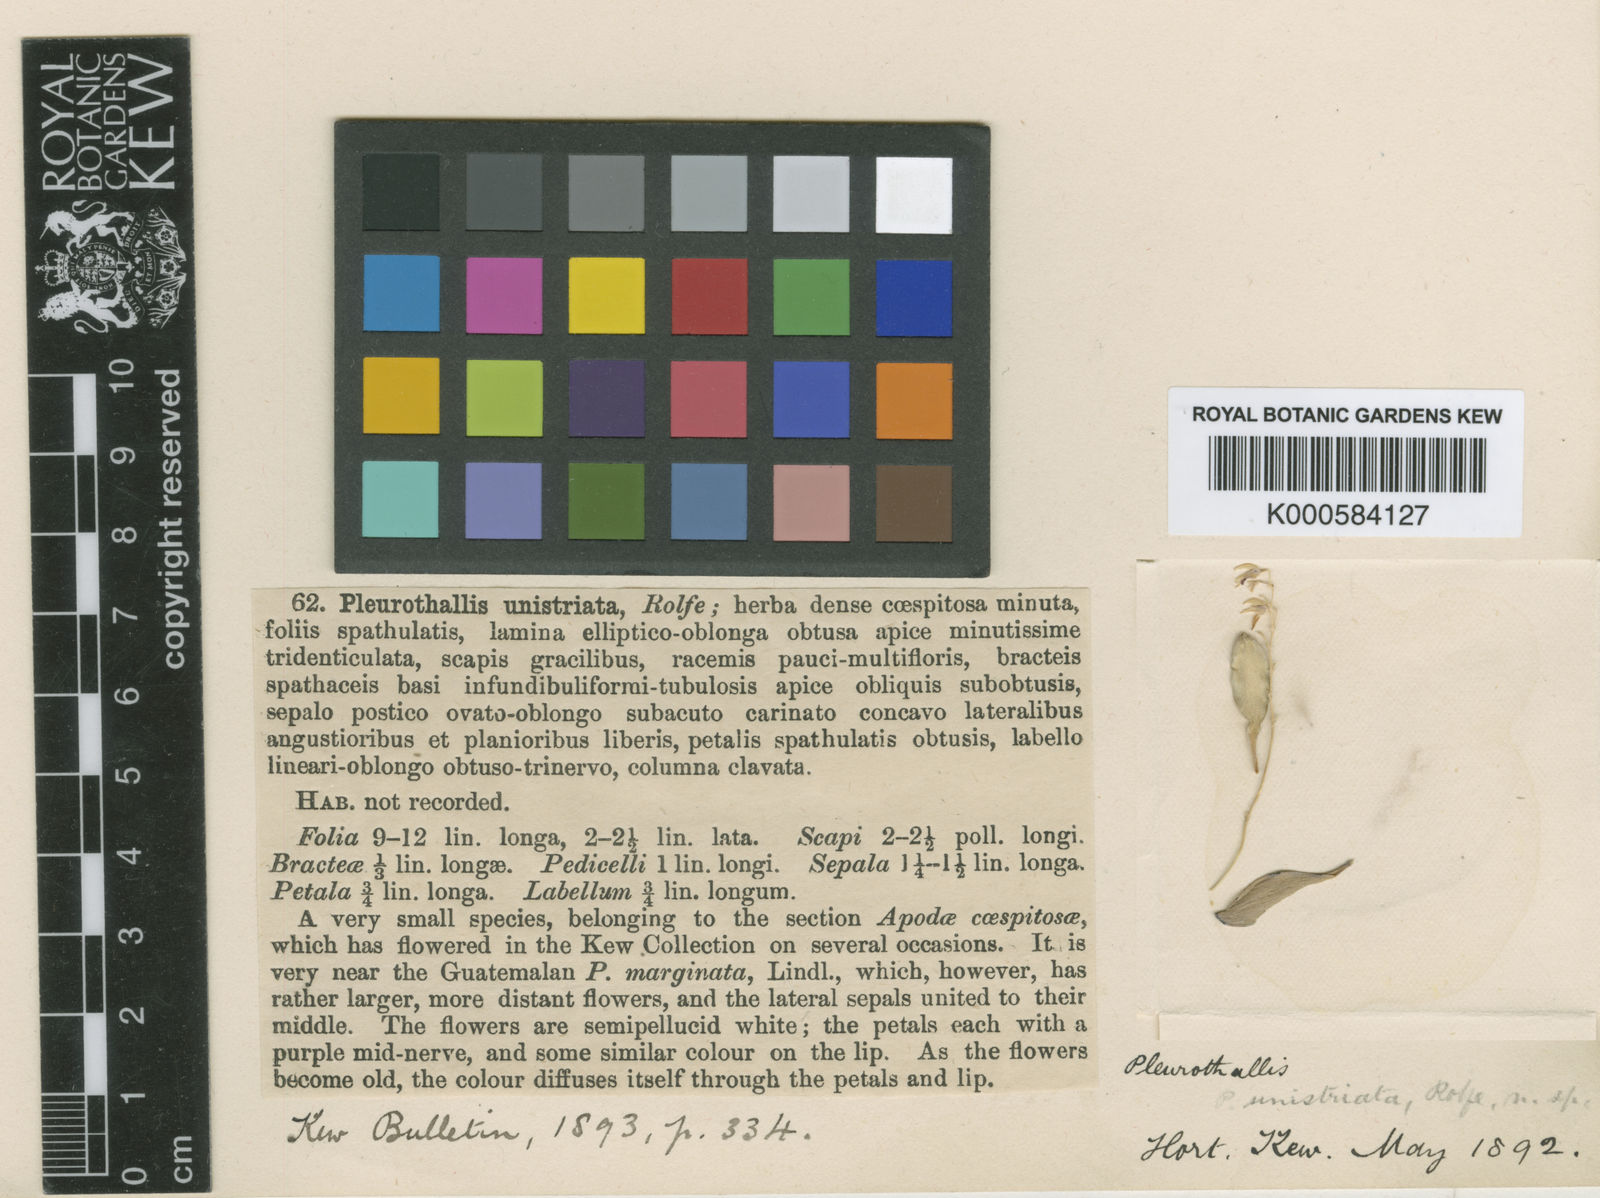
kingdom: Plantae
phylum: Tracheophyta
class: Liliopsida
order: Asparagales
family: Orchidaceae
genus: Specklinia
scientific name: Specklinia unistriata
